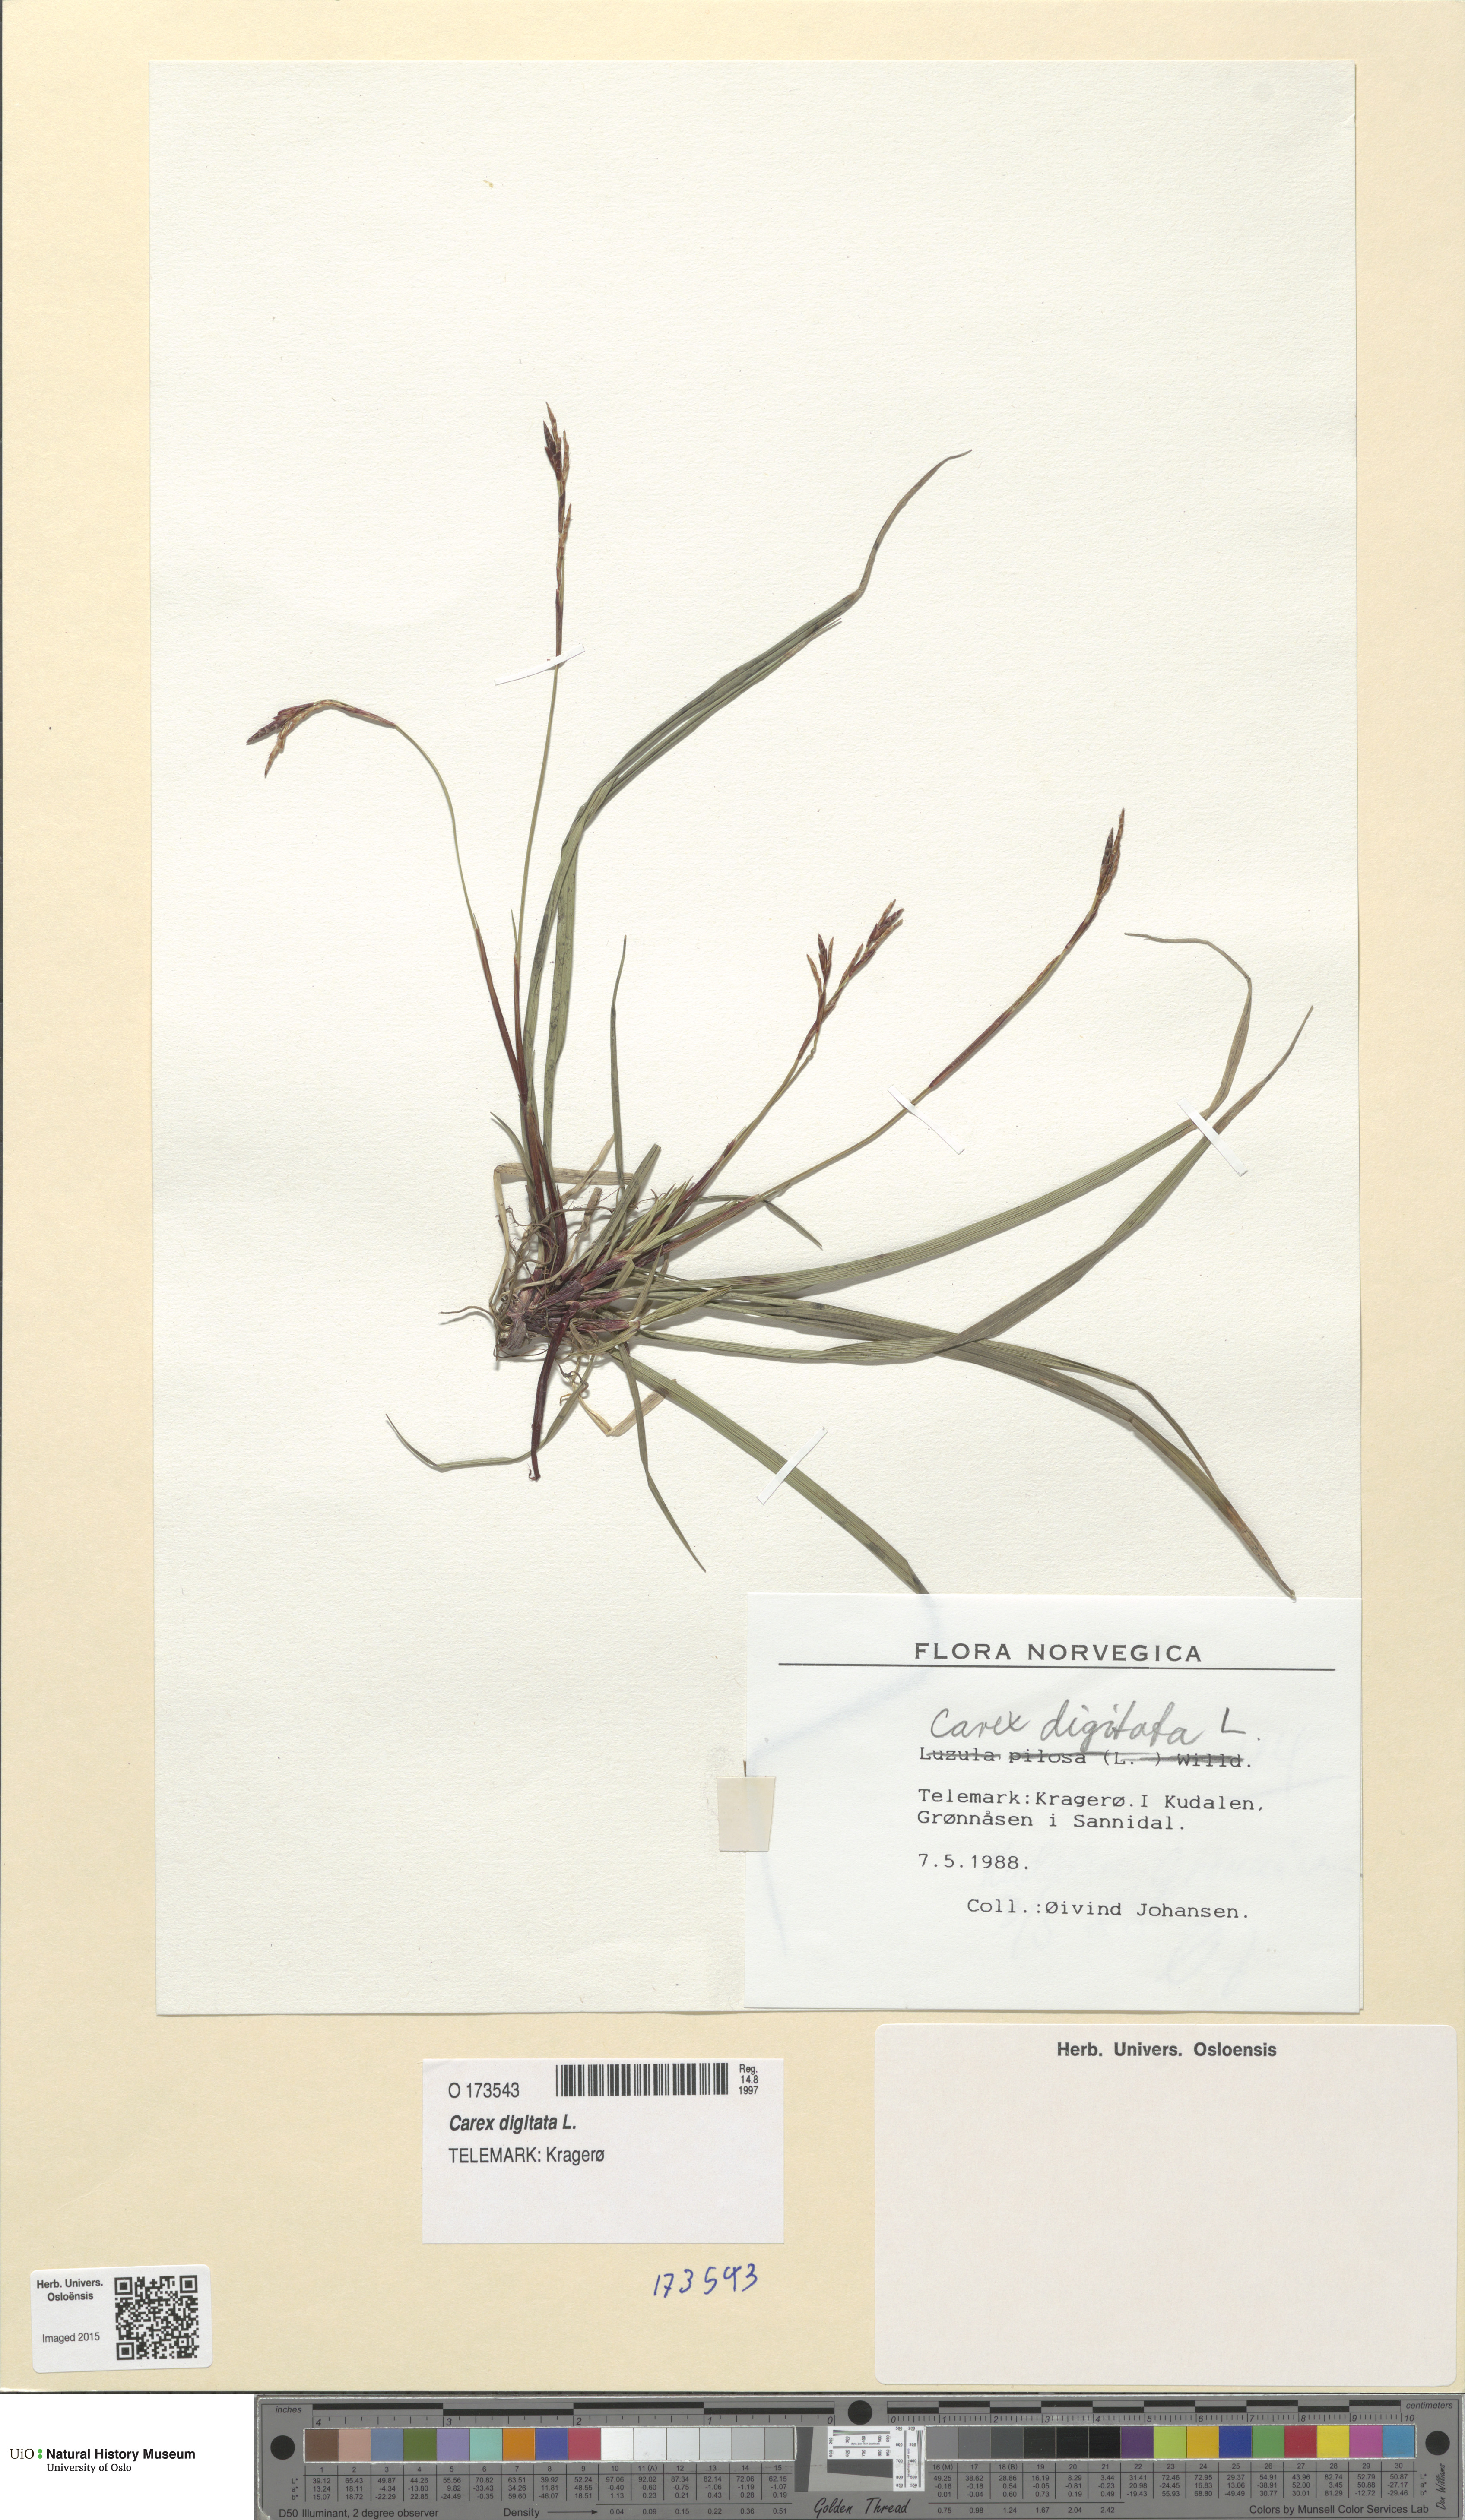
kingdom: Plantae
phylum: Tracheophyta
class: Liliopsida
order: Poales
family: Cyperaceae
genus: Carex
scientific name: Carex digitata
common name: Fingered sedge
